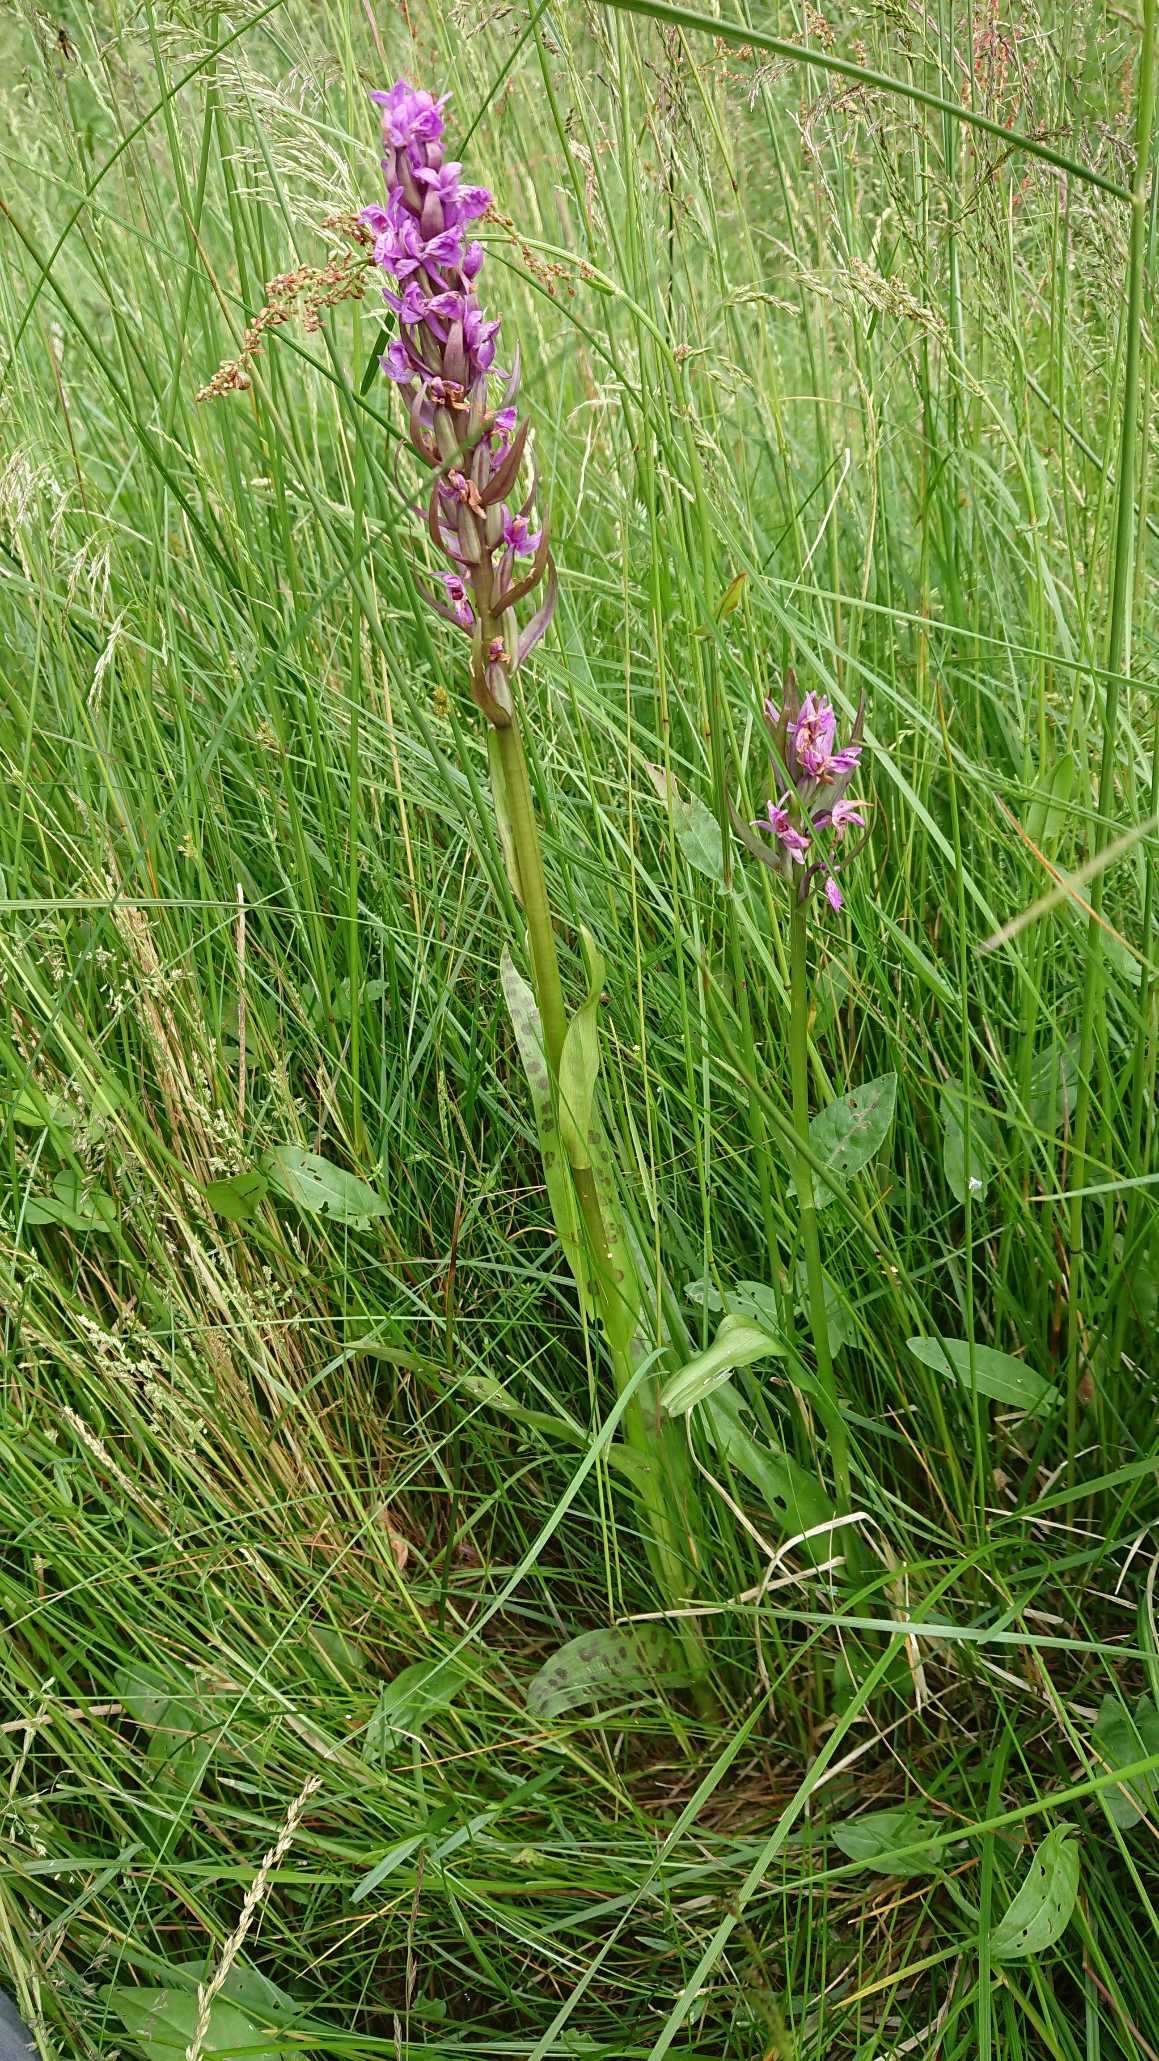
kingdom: Plantae
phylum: Tracheophyta
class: Liliopsida
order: Asparagales
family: Orchidaceae
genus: Dactylorhiza
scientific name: Dactylorhiza majalis
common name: Maj-gøgeurt
